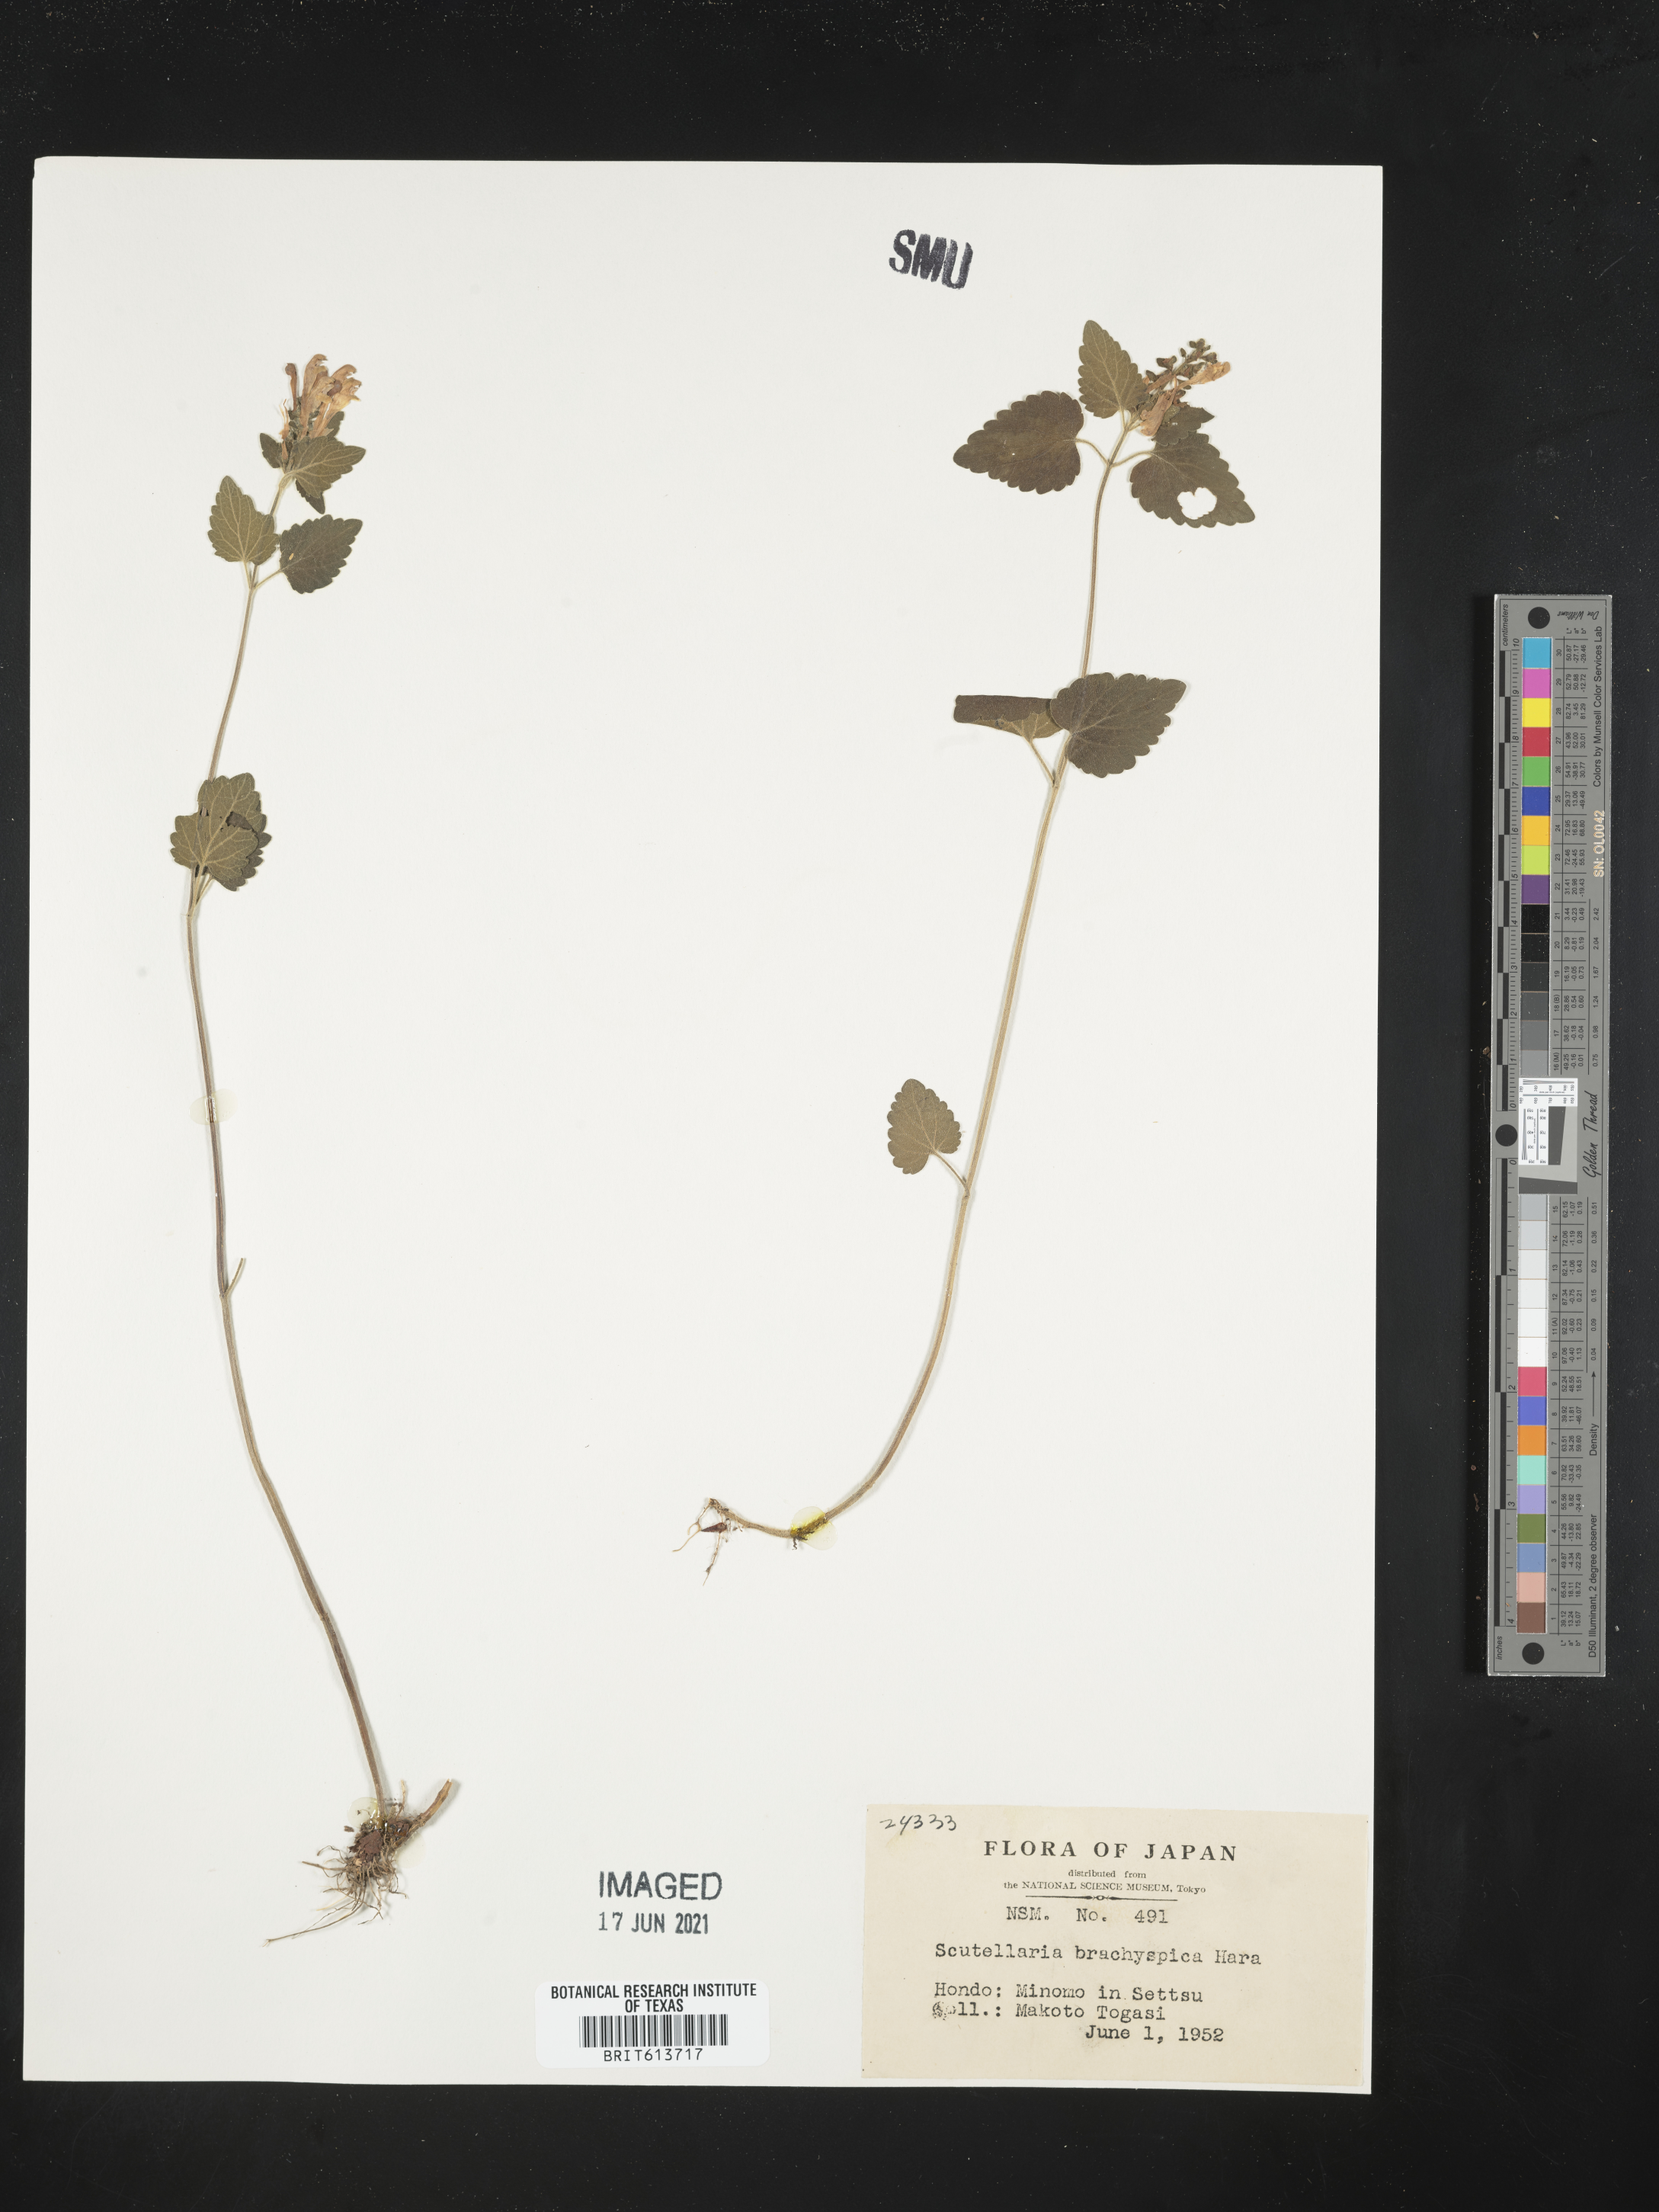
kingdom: Plantae
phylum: Tracheophyta
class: Magnoliopsida
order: Lamiales
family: Lamiaceae
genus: Scutellaria
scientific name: Scutellaria brachyspica
